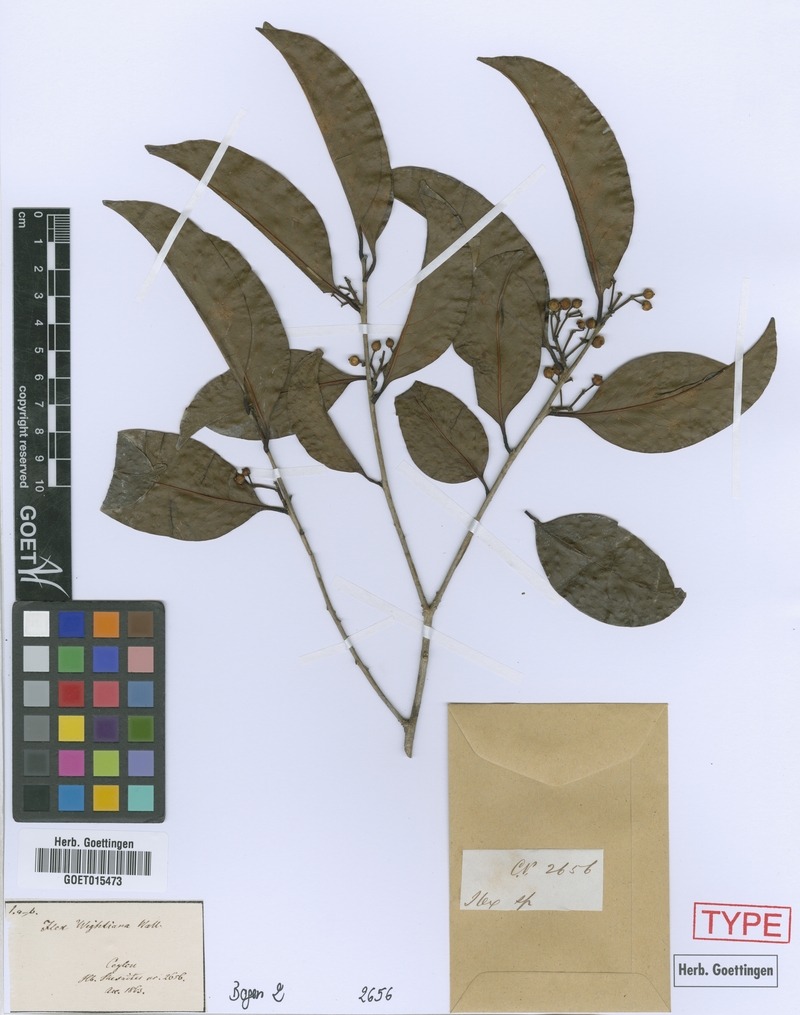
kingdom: Plantae
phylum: Tracheophyta
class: Magnoliopsida
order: Aquifoliales
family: Aquifoliaceae
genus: Ilex
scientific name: Ilex zeylanica
